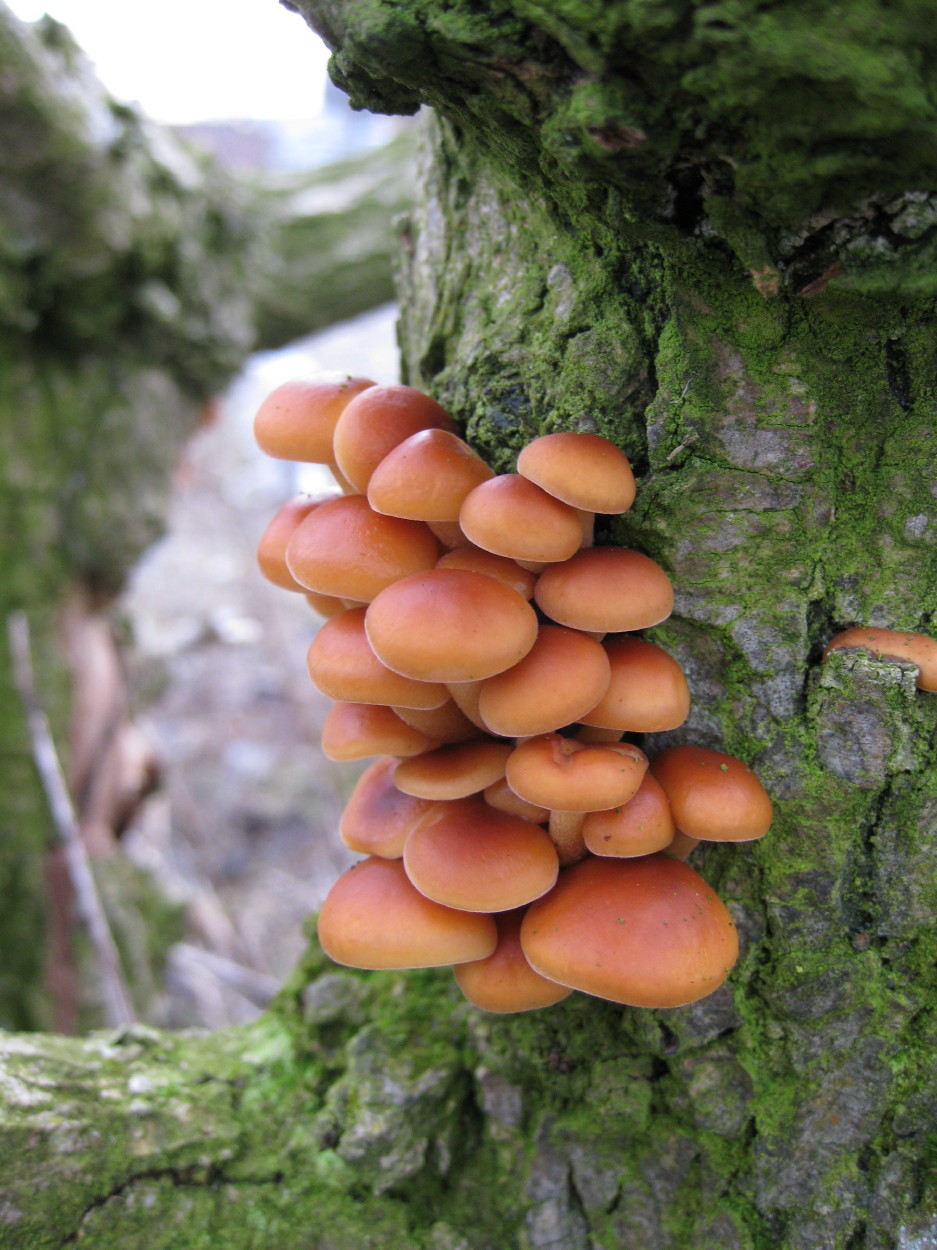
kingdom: Fungi
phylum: Basidiomycota
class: Agaricomycetes
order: Agaricales
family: Physalacriaceae
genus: Flammulina
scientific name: Flammulina velutipes
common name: gul fløjlsfod
